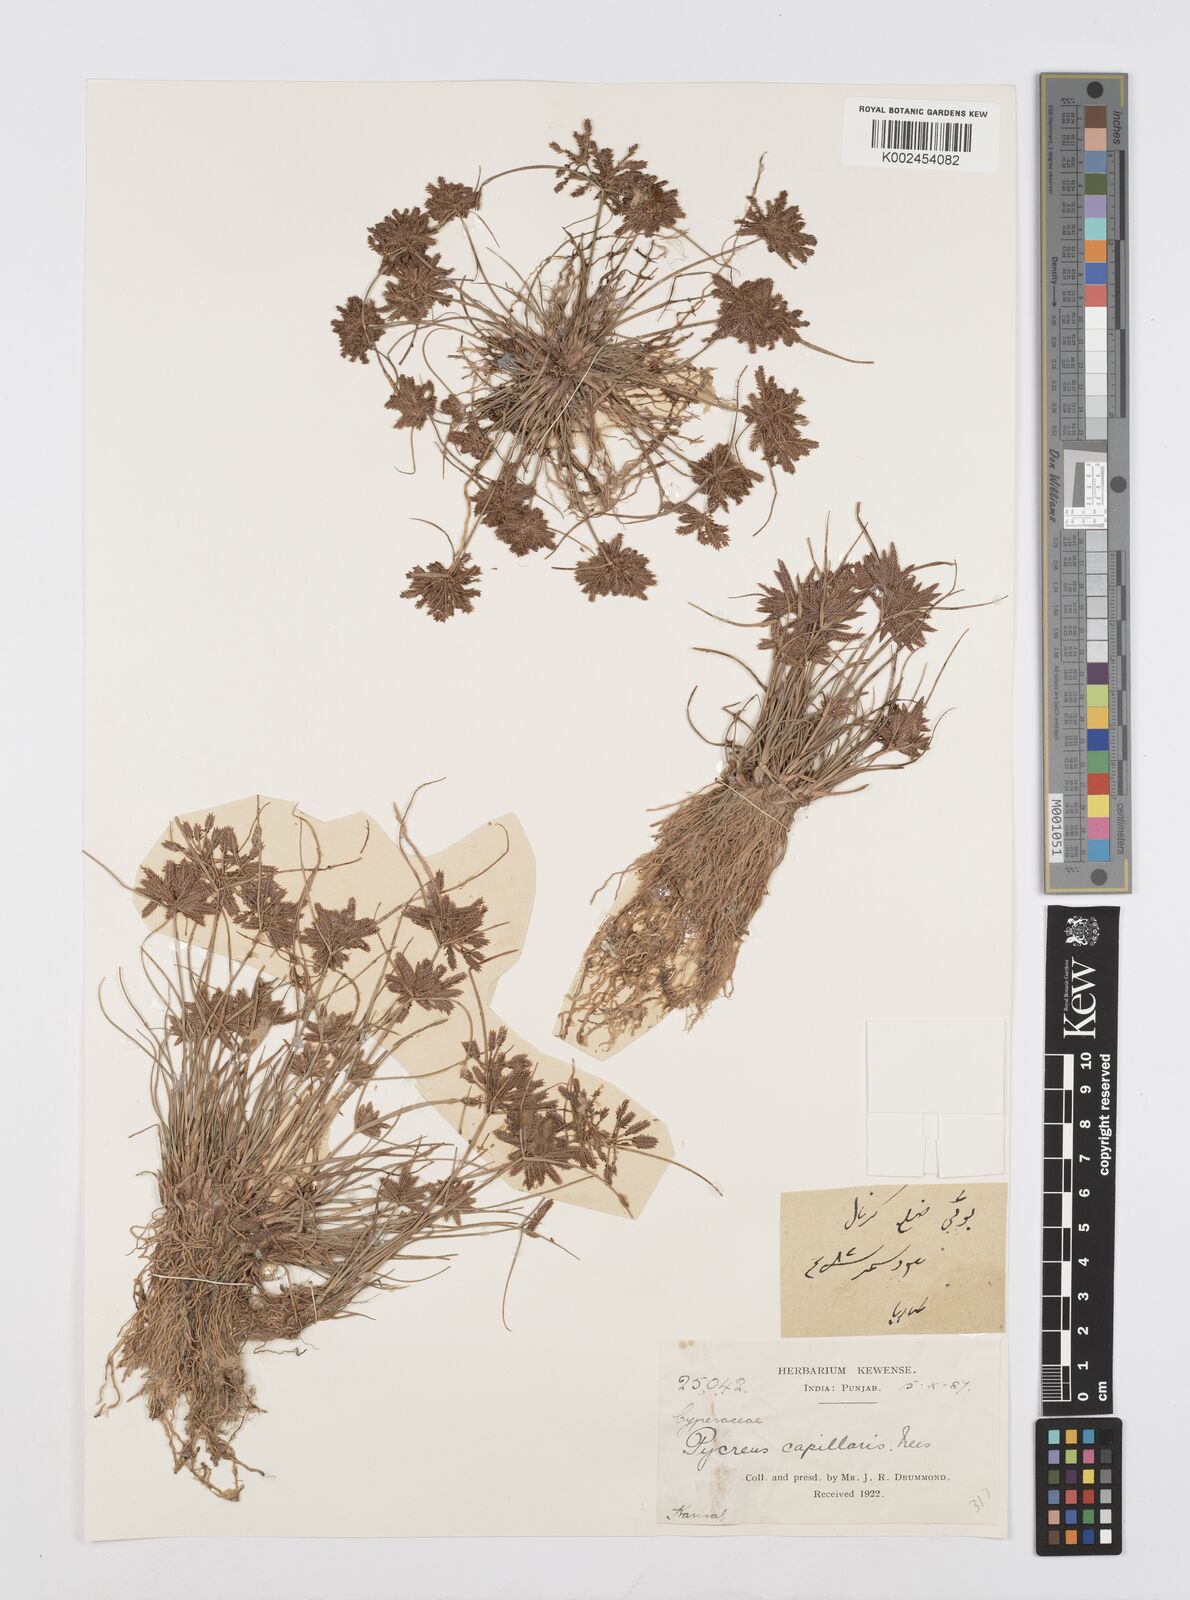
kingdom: Plantae
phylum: Tracheophyta
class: Liliopsida
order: Poales
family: Cyperaceae
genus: Cyperus
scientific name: Cyperus flavidus
